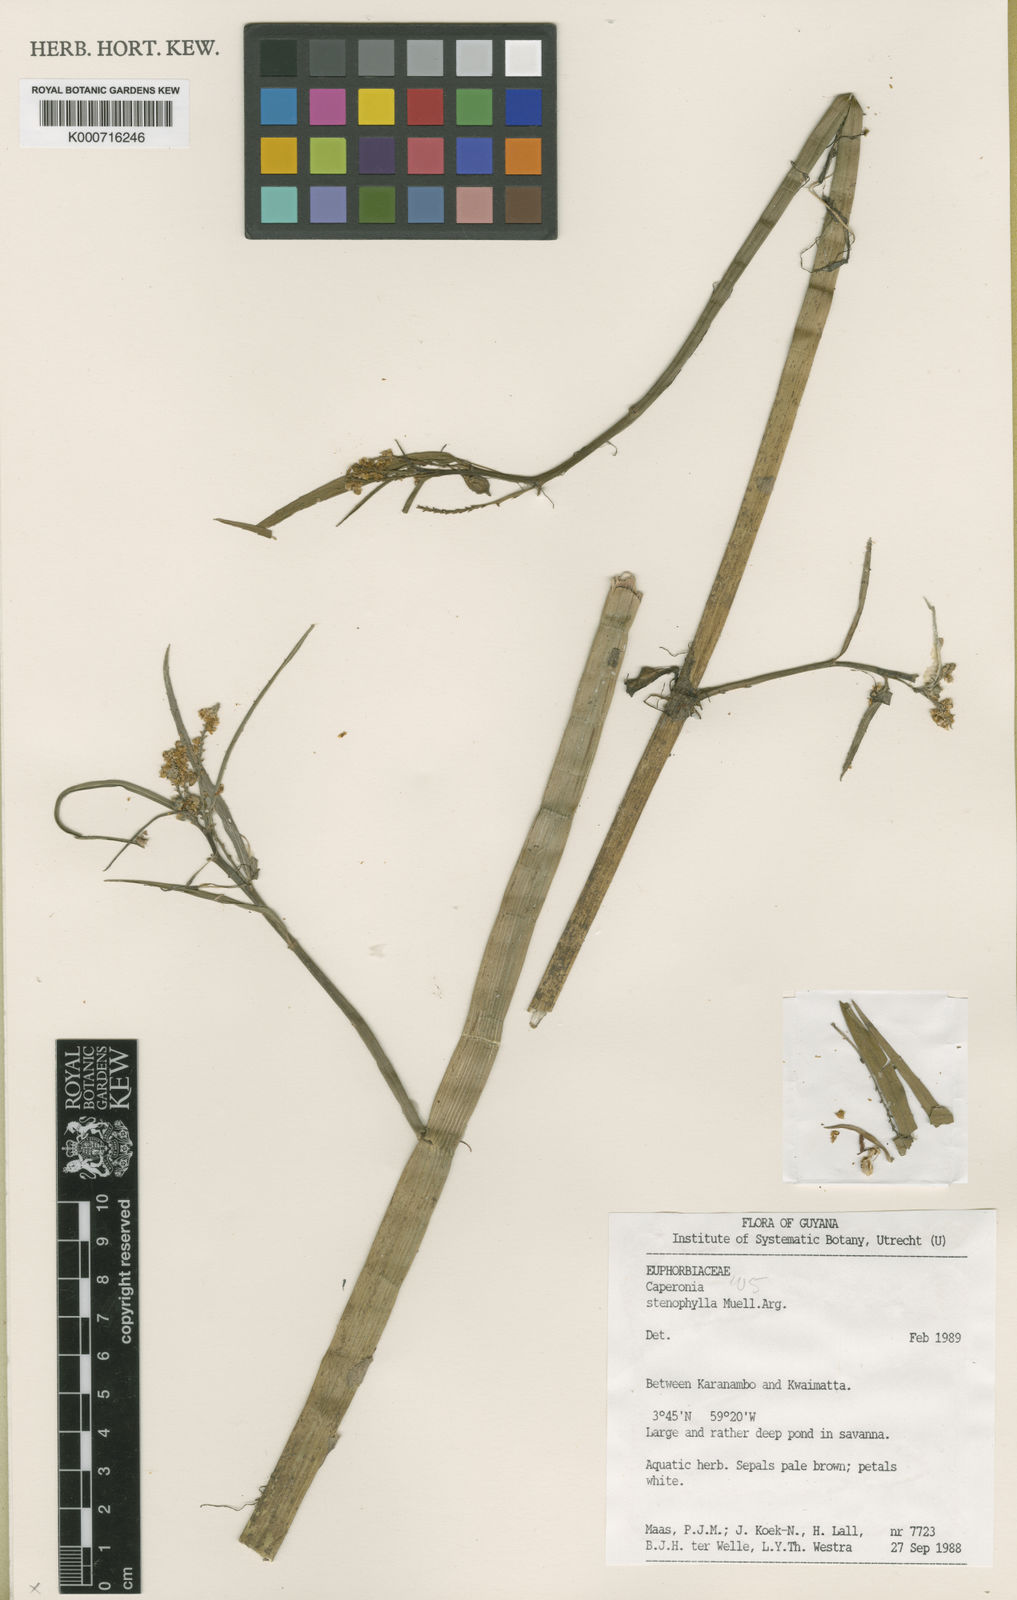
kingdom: Plantae
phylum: Tracheophyta
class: Magnoliopsida
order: Malpighiales
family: Euphorbiaceae
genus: Caperonia
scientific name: Caperonia
